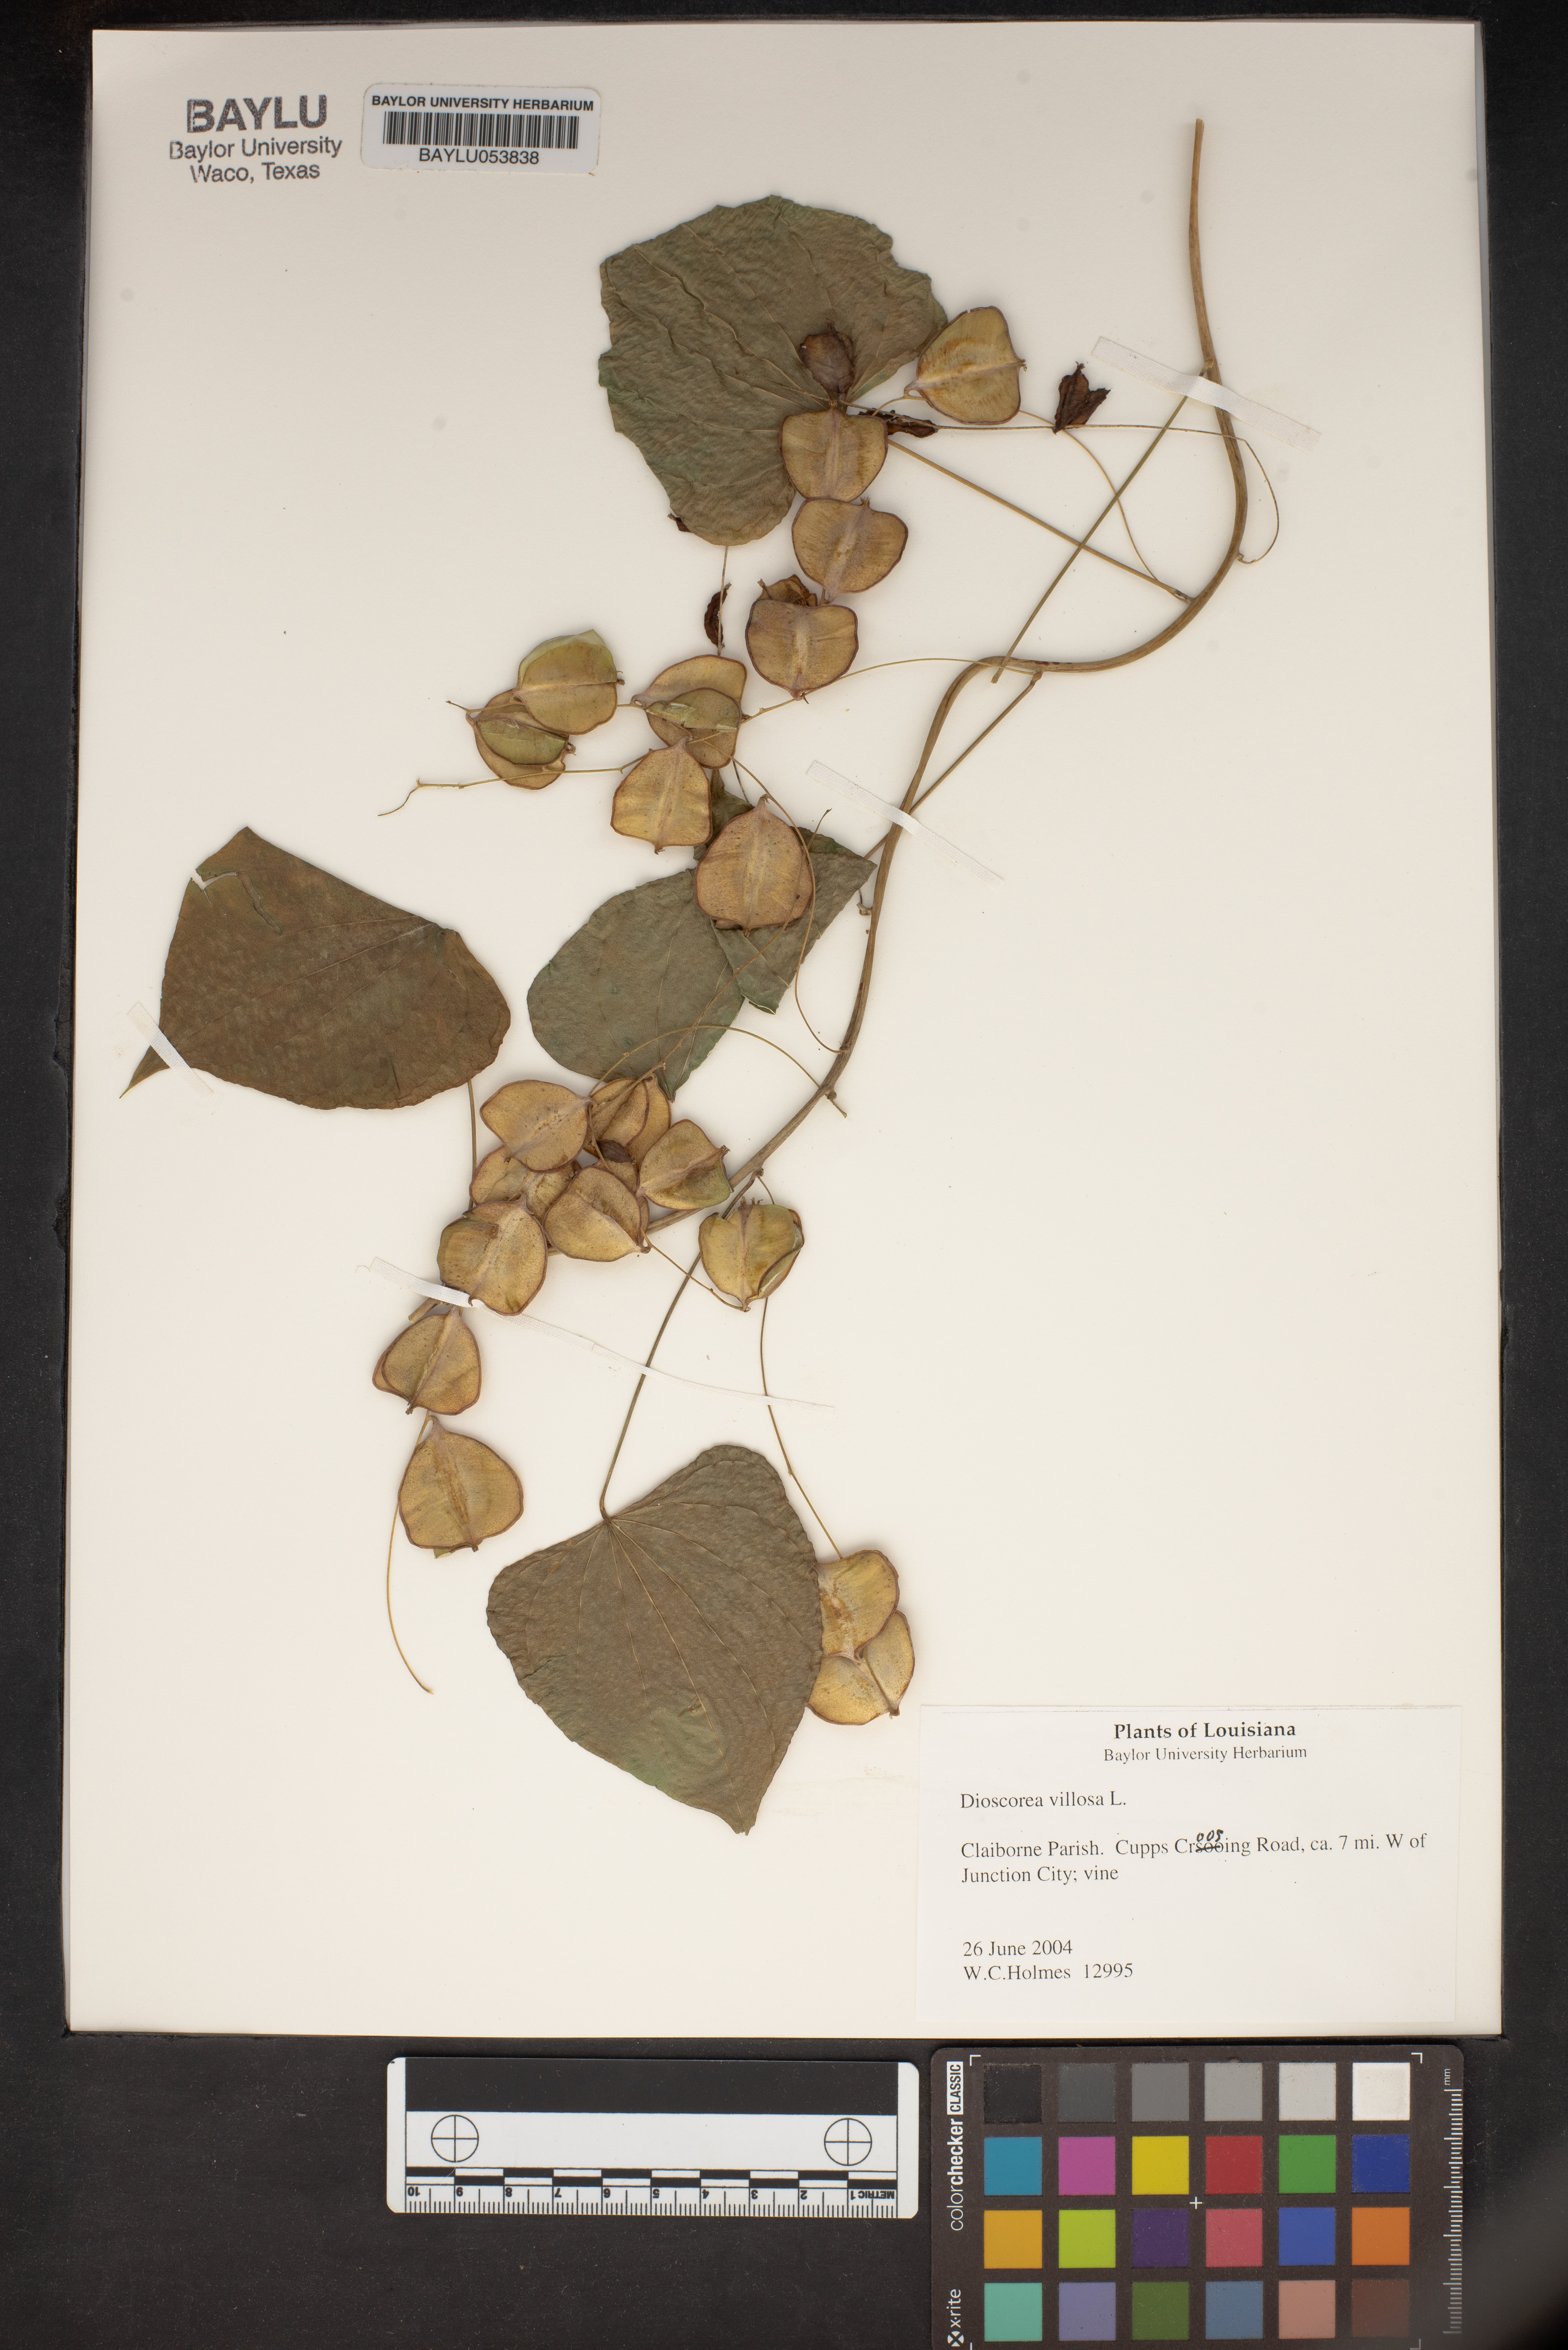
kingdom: Plantae
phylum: Tracheophyta
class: Liliopsida
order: Dioscoreales
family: Dioscoreaceae
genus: Dioscorea
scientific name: Dioscorea villosa
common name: Wild yam
